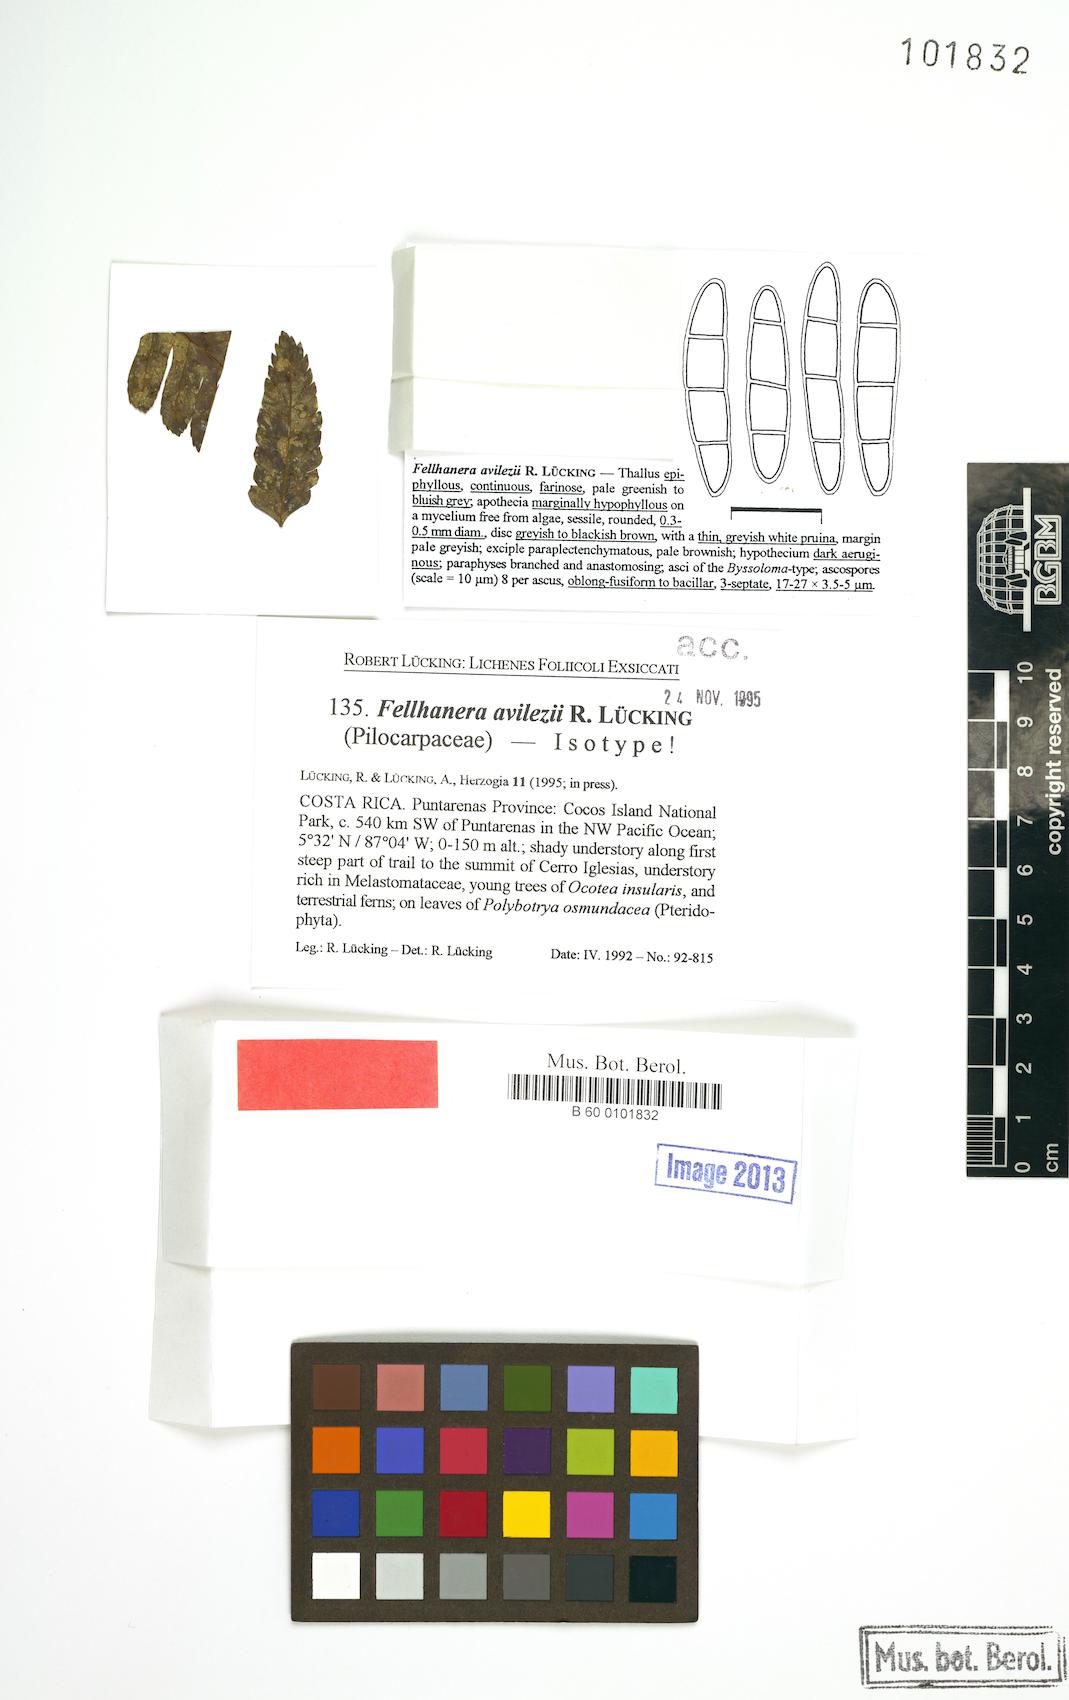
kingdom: Fungi
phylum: Ascomycota
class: Lecanoromycetes
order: Lecanorales
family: Pilocarpaceae
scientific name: Pilocarpaceae
